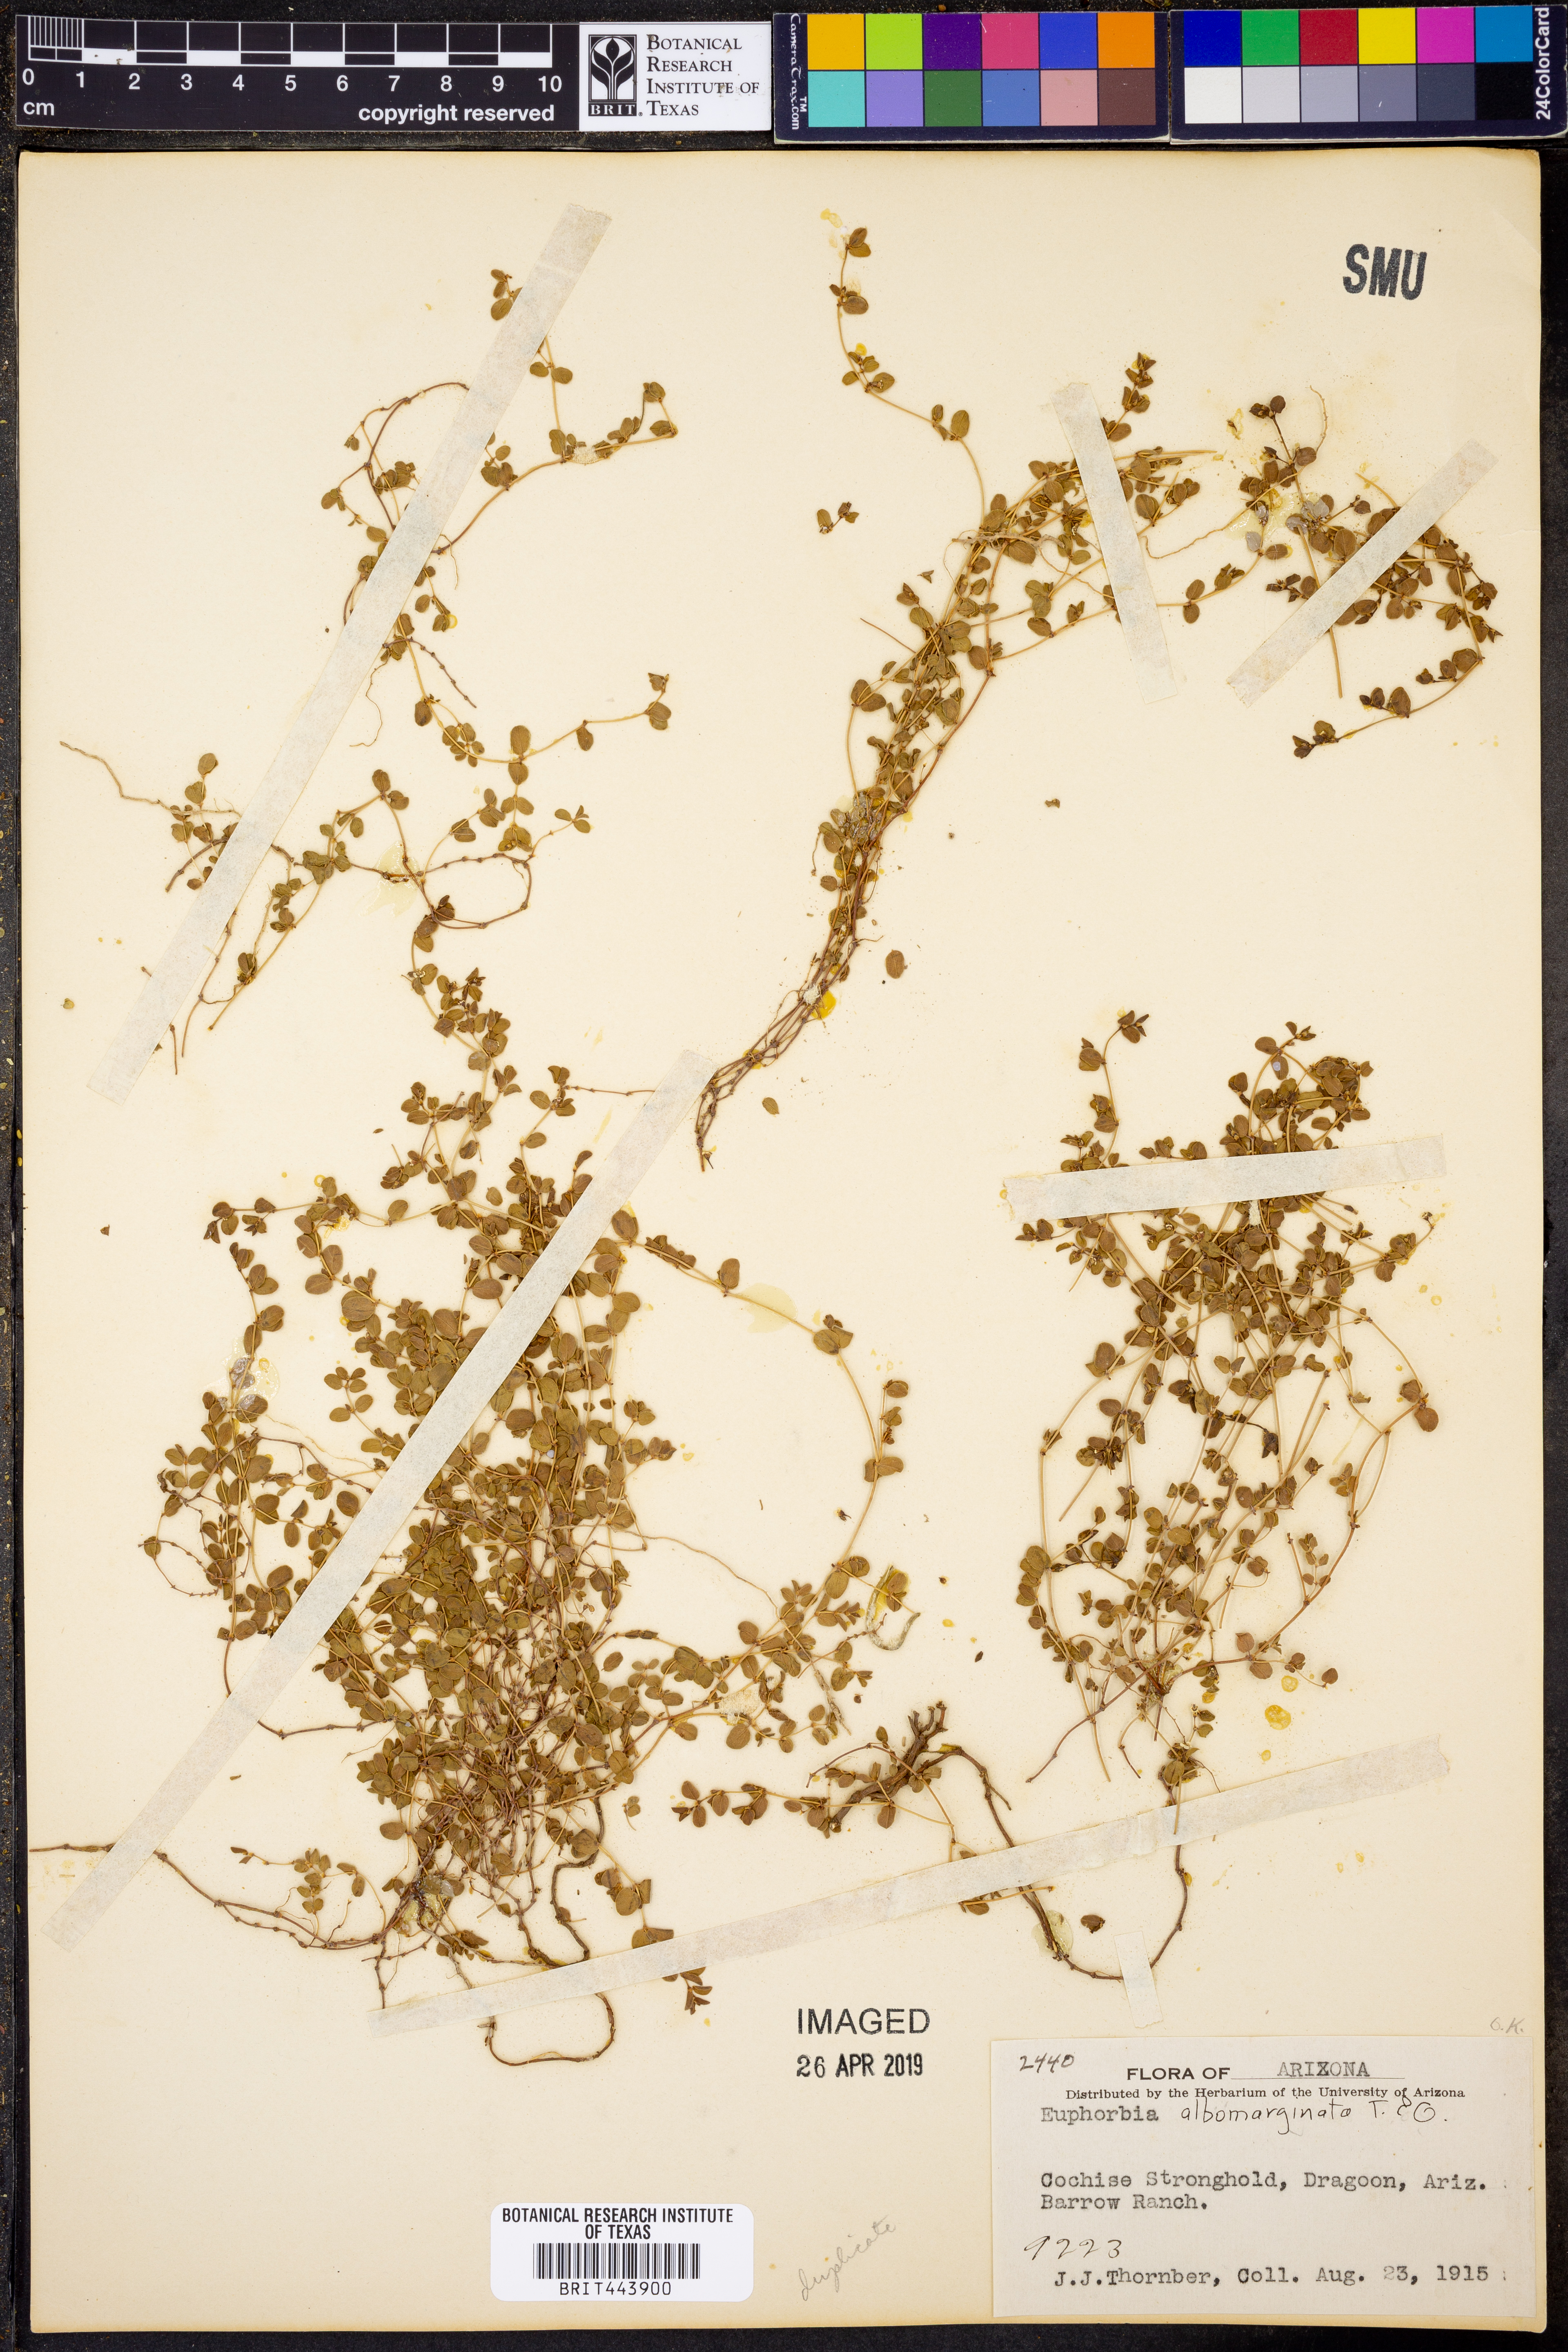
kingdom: Plantae
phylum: Tracheophyta
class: Magnoliopsida
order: Malpighiales
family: Euphorbiaceae
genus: Euphorbia
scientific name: Euphorbia albomarginata
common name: Whitemargin sandmat
